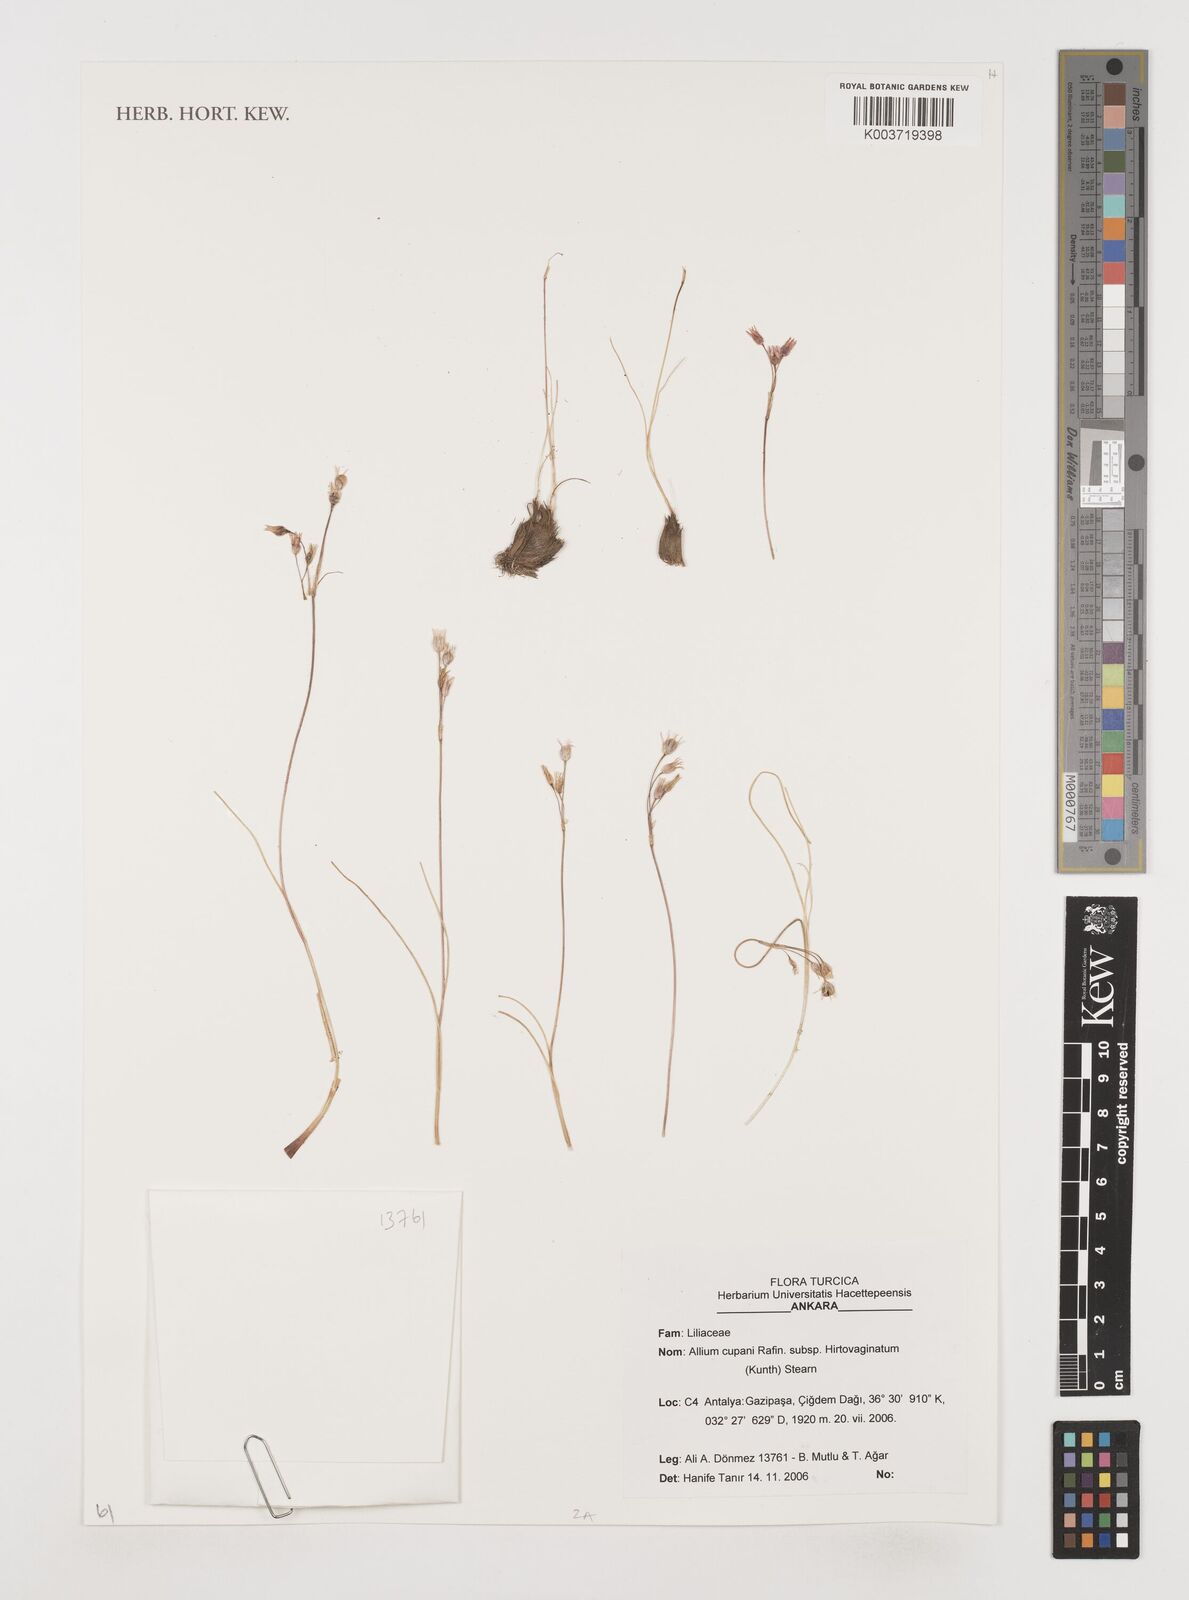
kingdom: Plantae
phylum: Tracheophyta
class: Liliopsida
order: Asparagales
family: Amaryllidaceae
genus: Allium
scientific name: Allium cupani
